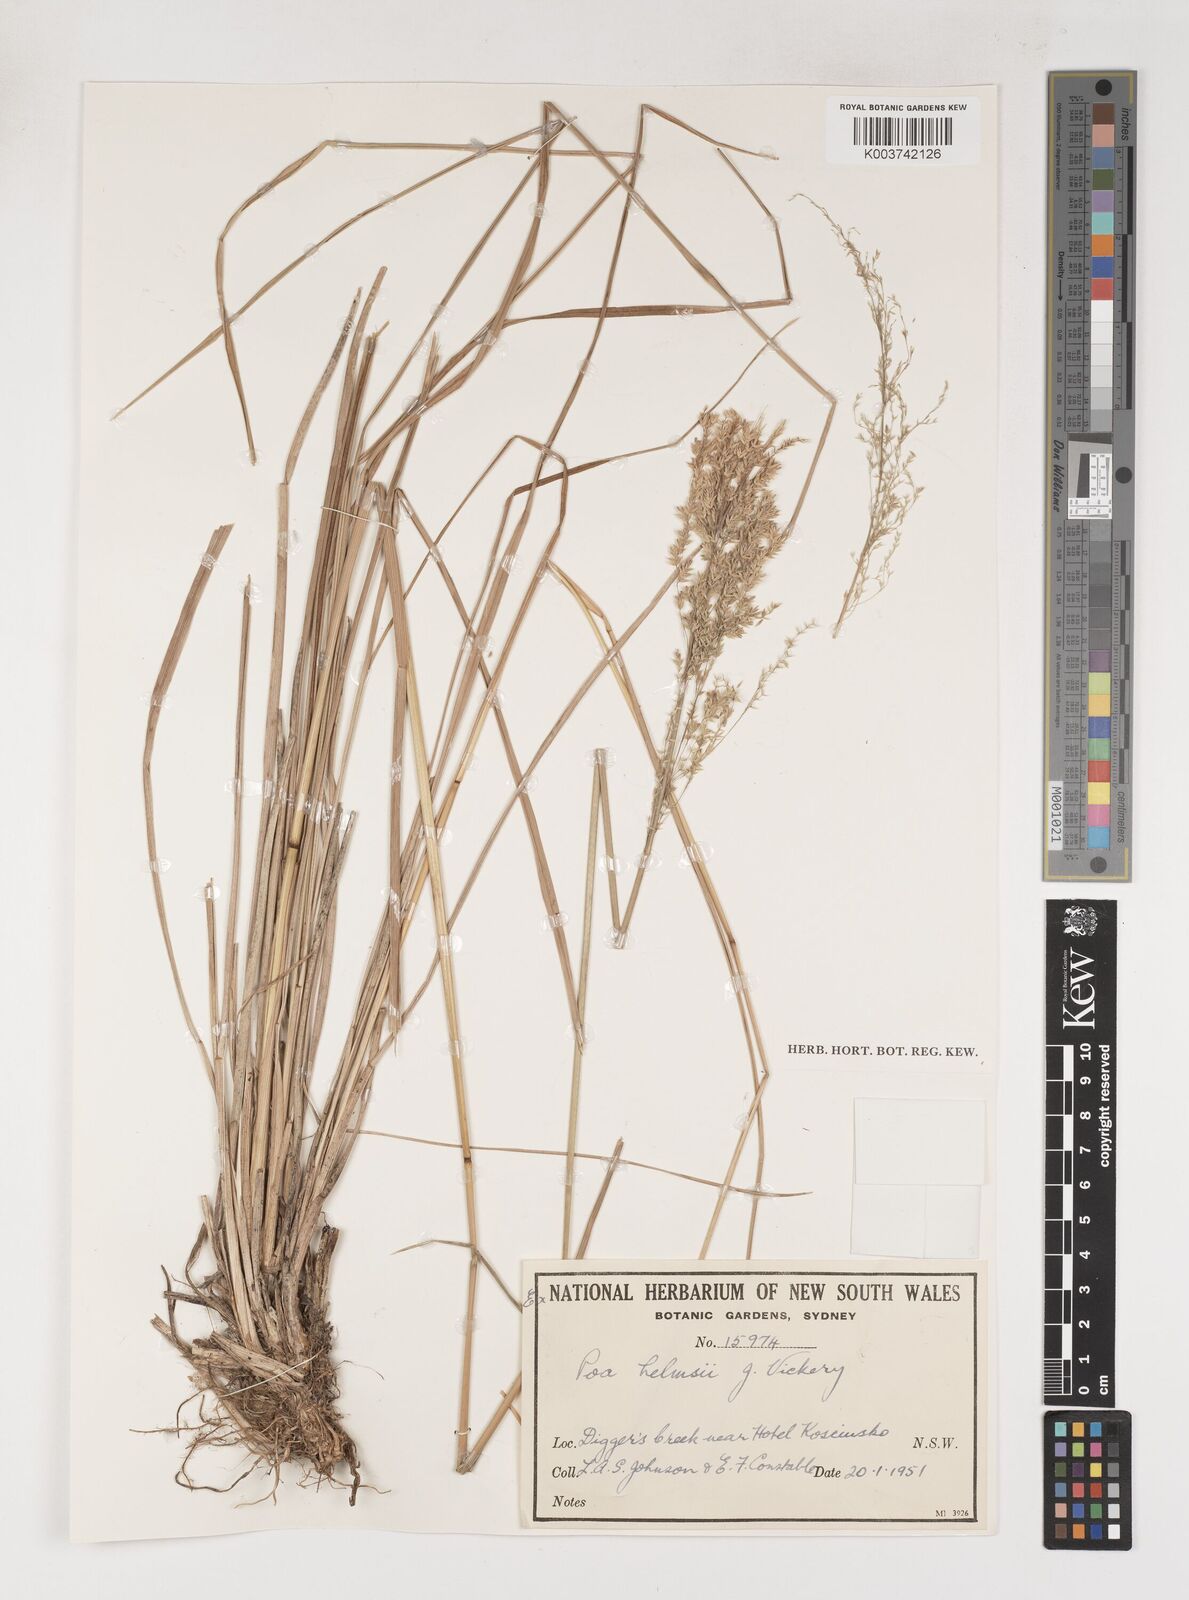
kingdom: Plantae
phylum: Tracheophyta
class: Liliopsida
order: Poales
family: Poaceae
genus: Poa
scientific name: Poa helmsii
